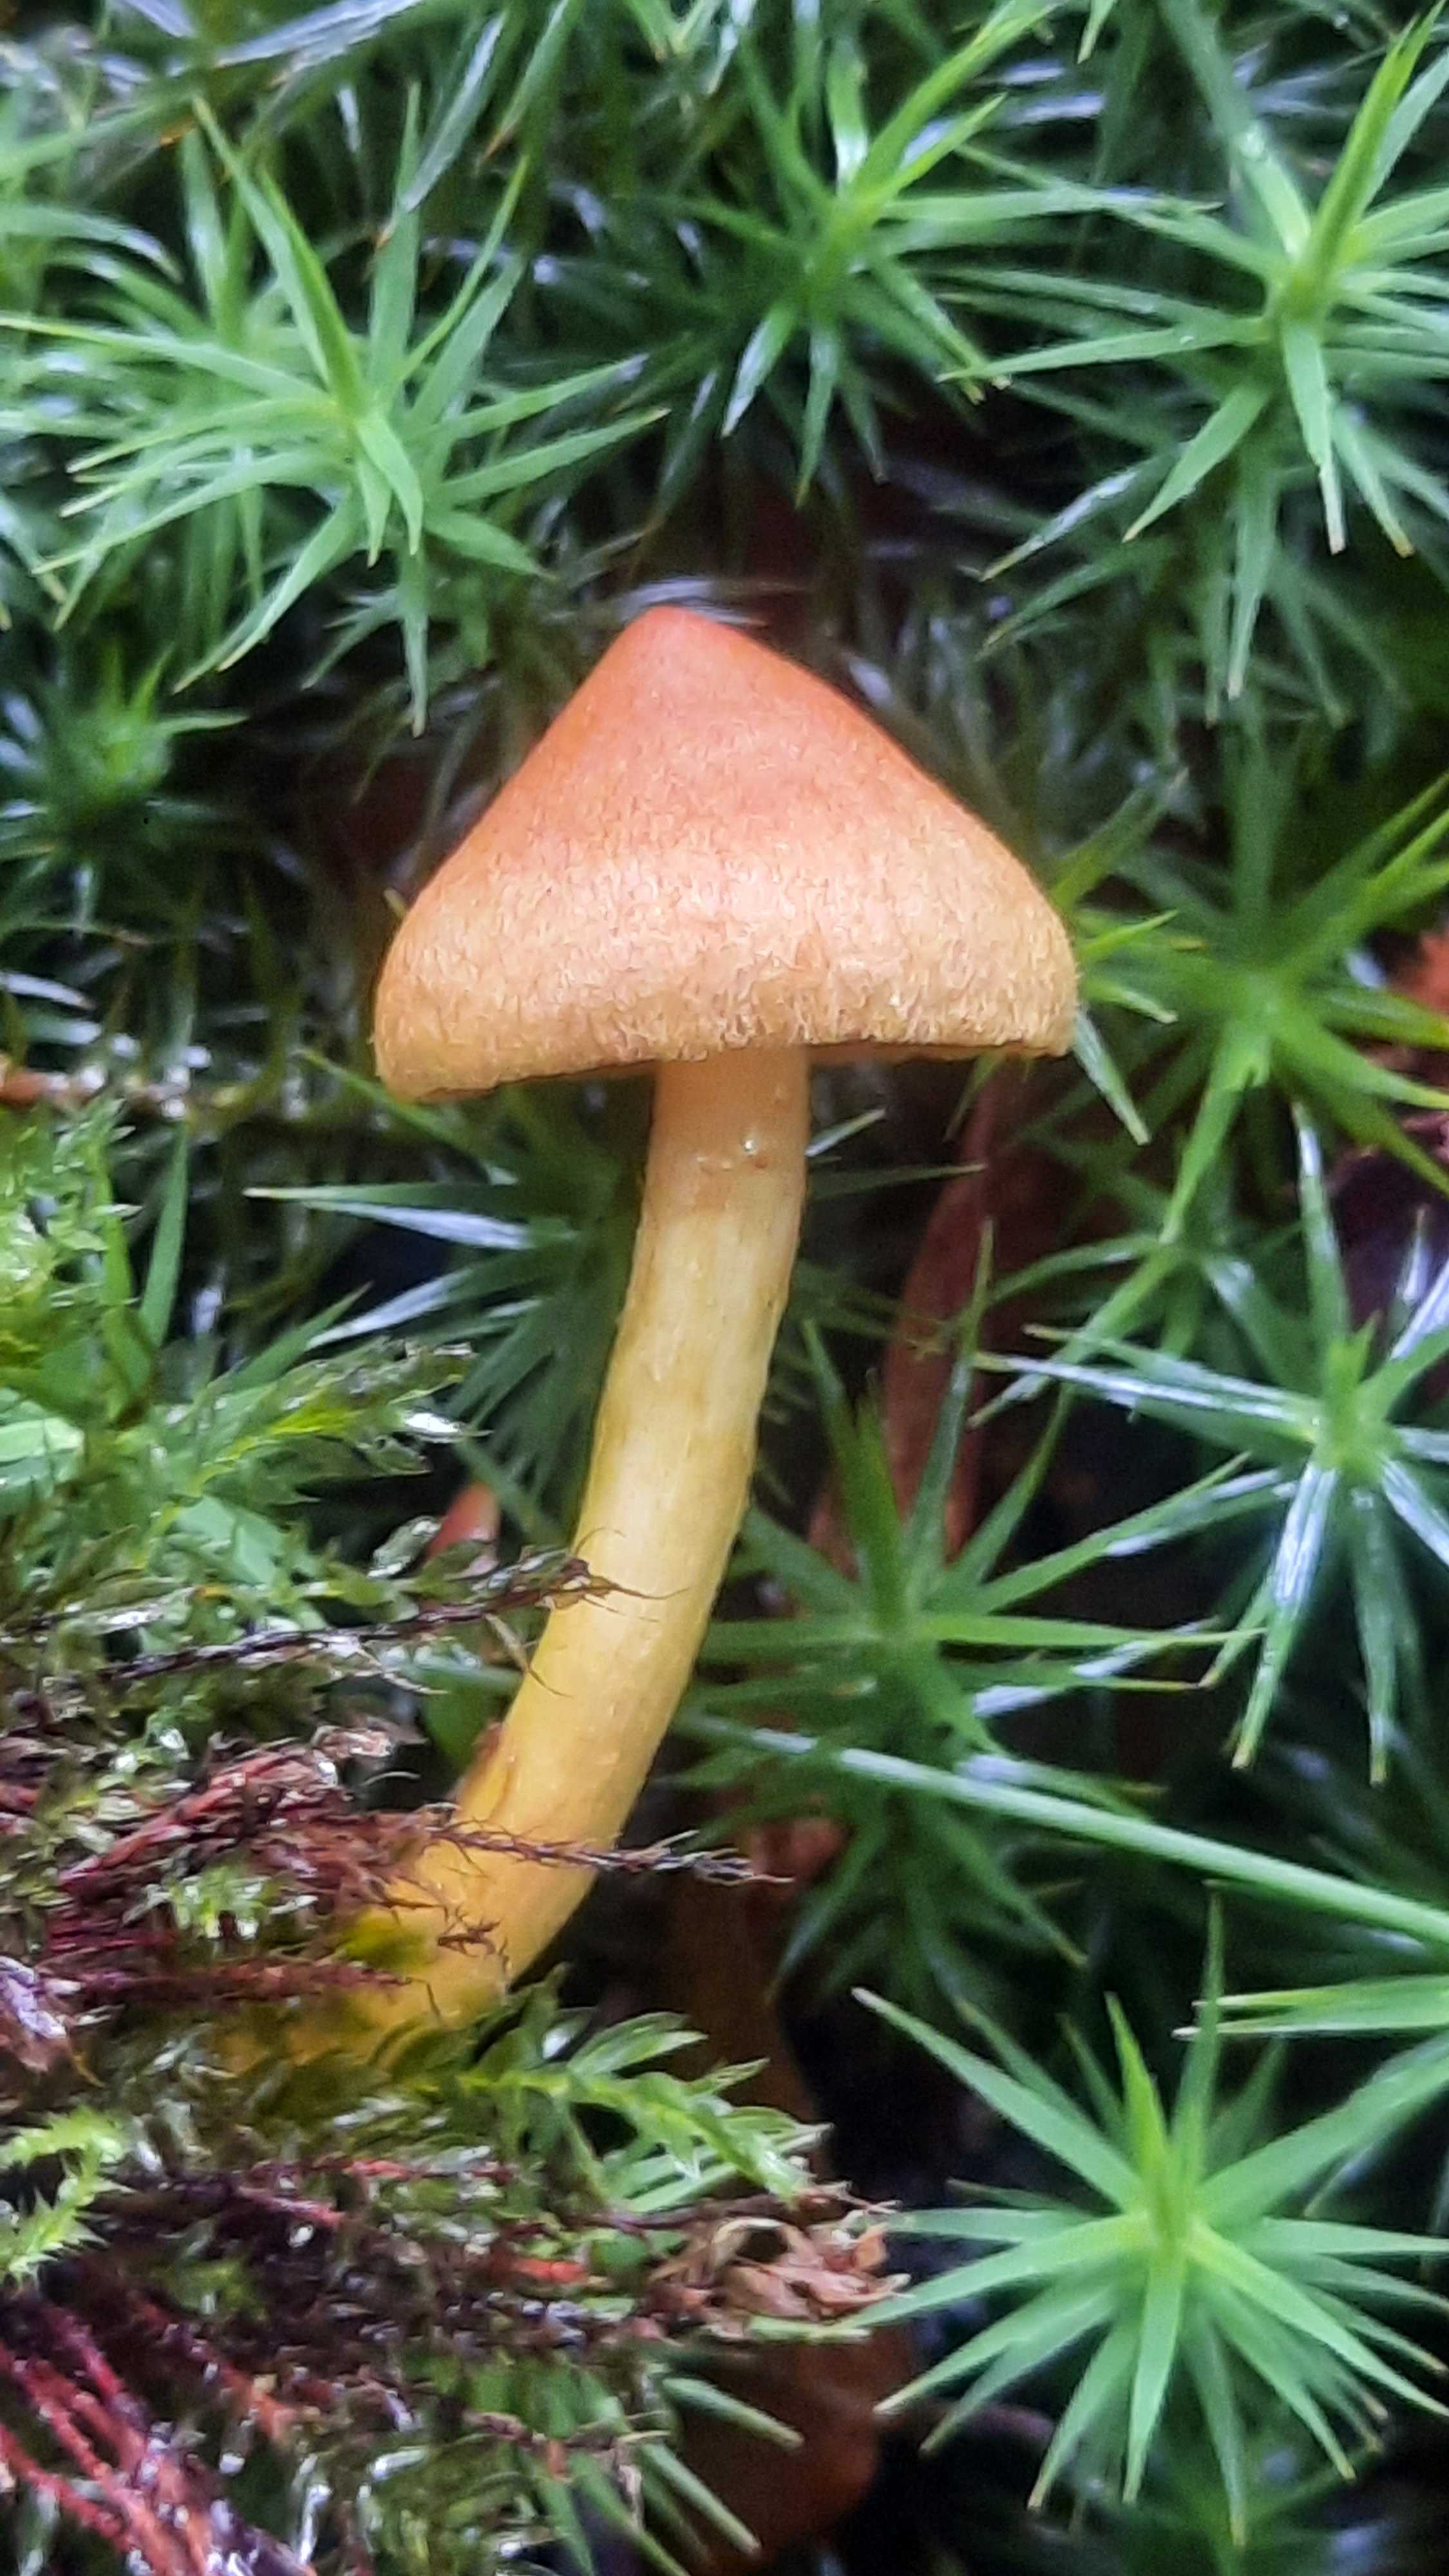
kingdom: Fungi
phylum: Basidiomycota
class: Agaricomycetes
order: Agaricales
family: Cortinariaceae
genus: Cortinarius
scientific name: Cortinarius
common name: gulbladet slørhat
